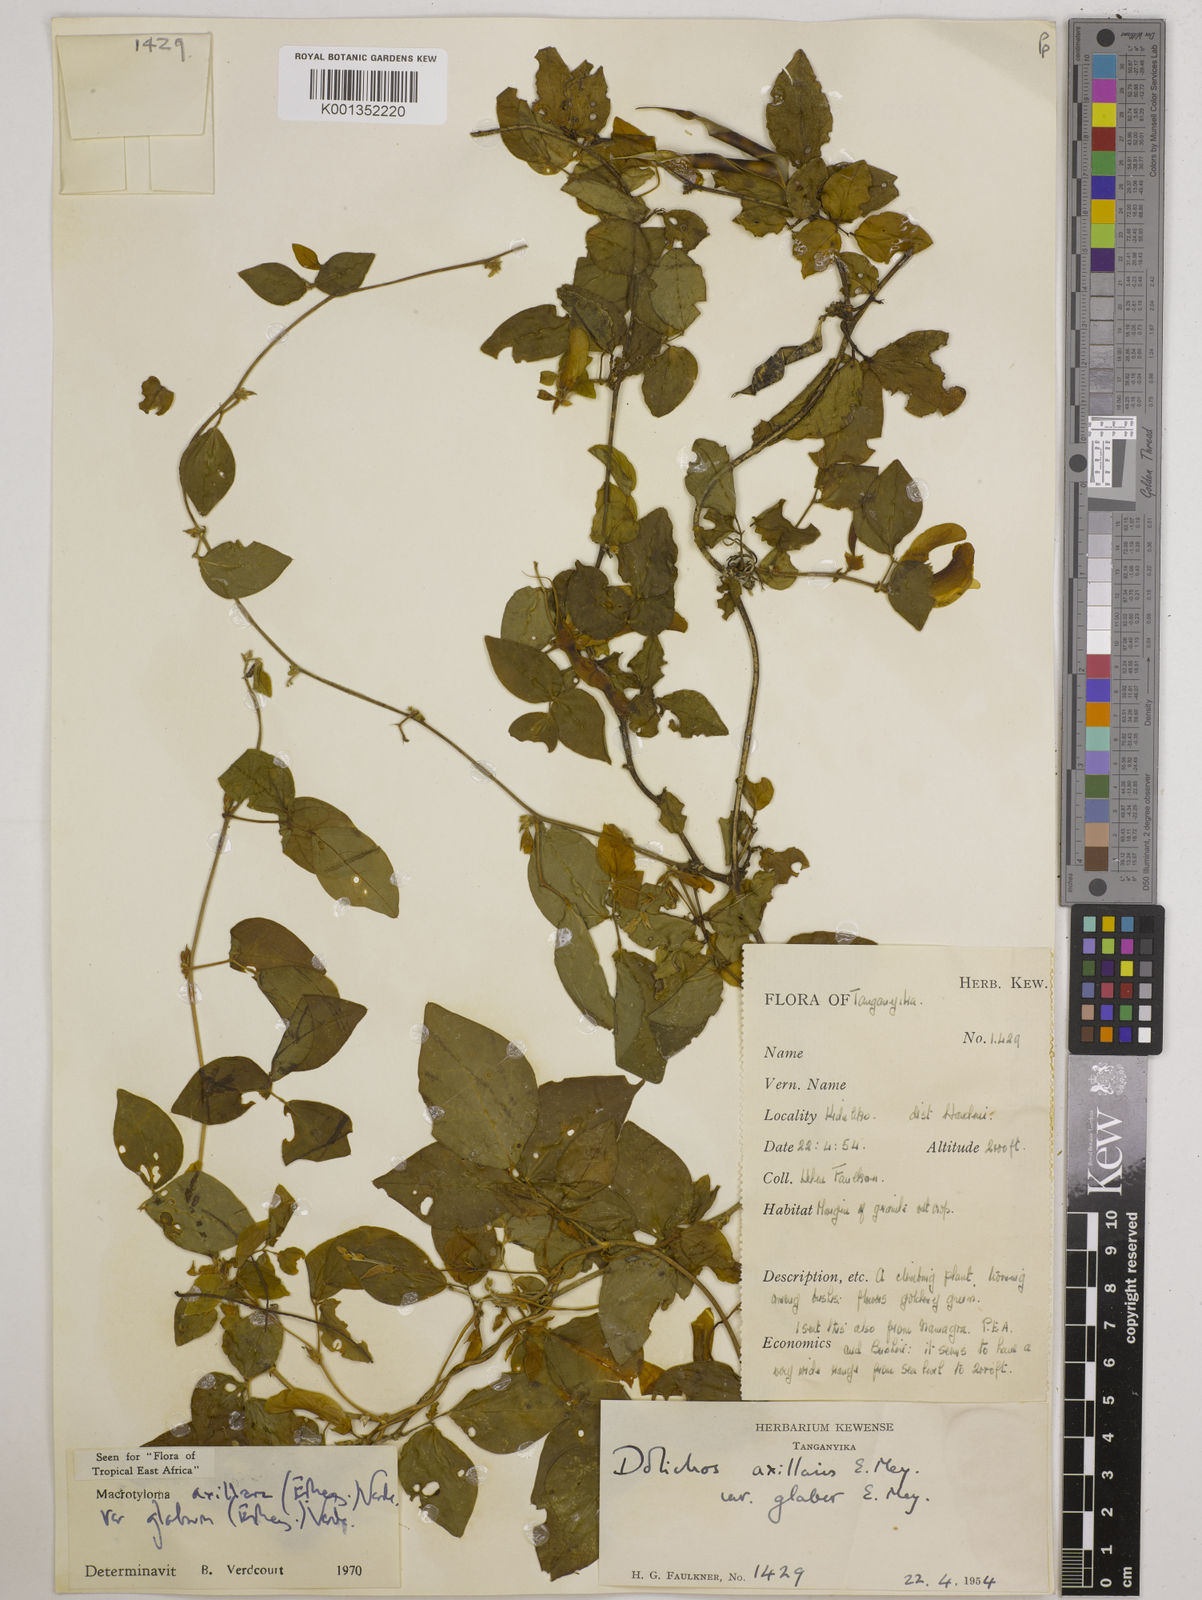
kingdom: Plantae
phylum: Tracheophyta
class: Magnoliopsida
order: Fabales
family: Fabaceae
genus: Macrotyloma
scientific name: Macrotyloma
